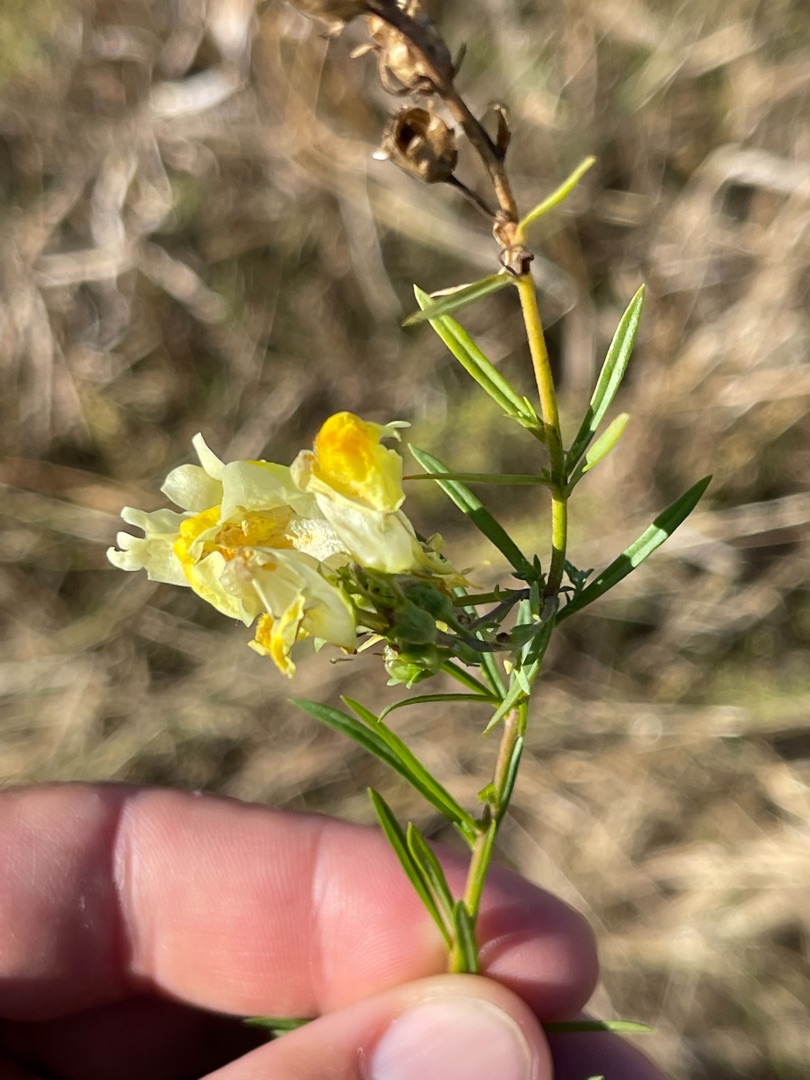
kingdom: Plantae
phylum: Tracheophyta
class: Magnoliopsida
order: Lamiales
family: Plantaginaceae
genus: Linaria
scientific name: Linaria vulgaris
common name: Almindelig torskemund
